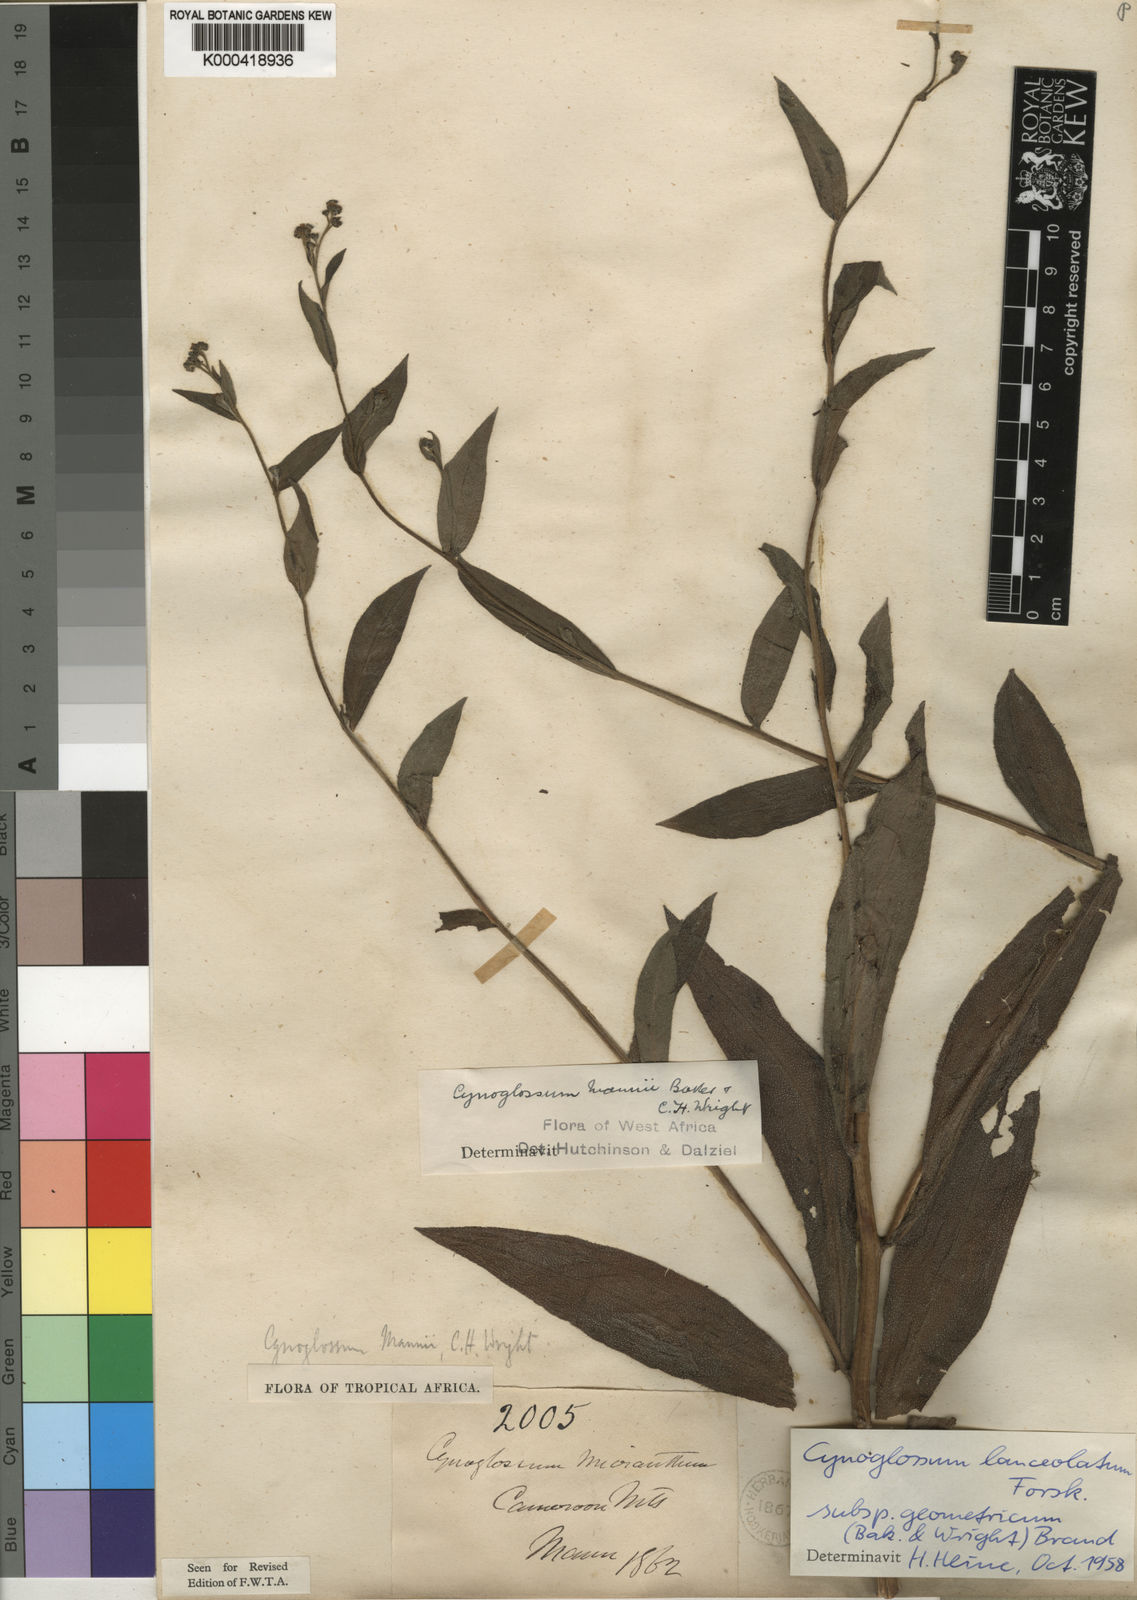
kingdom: Plantae
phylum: Tracheophyta
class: Magnoliopsida
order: Boraginales
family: Boraginaceae
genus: Cynoglossum
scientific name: Cynoglossum amplifolium
